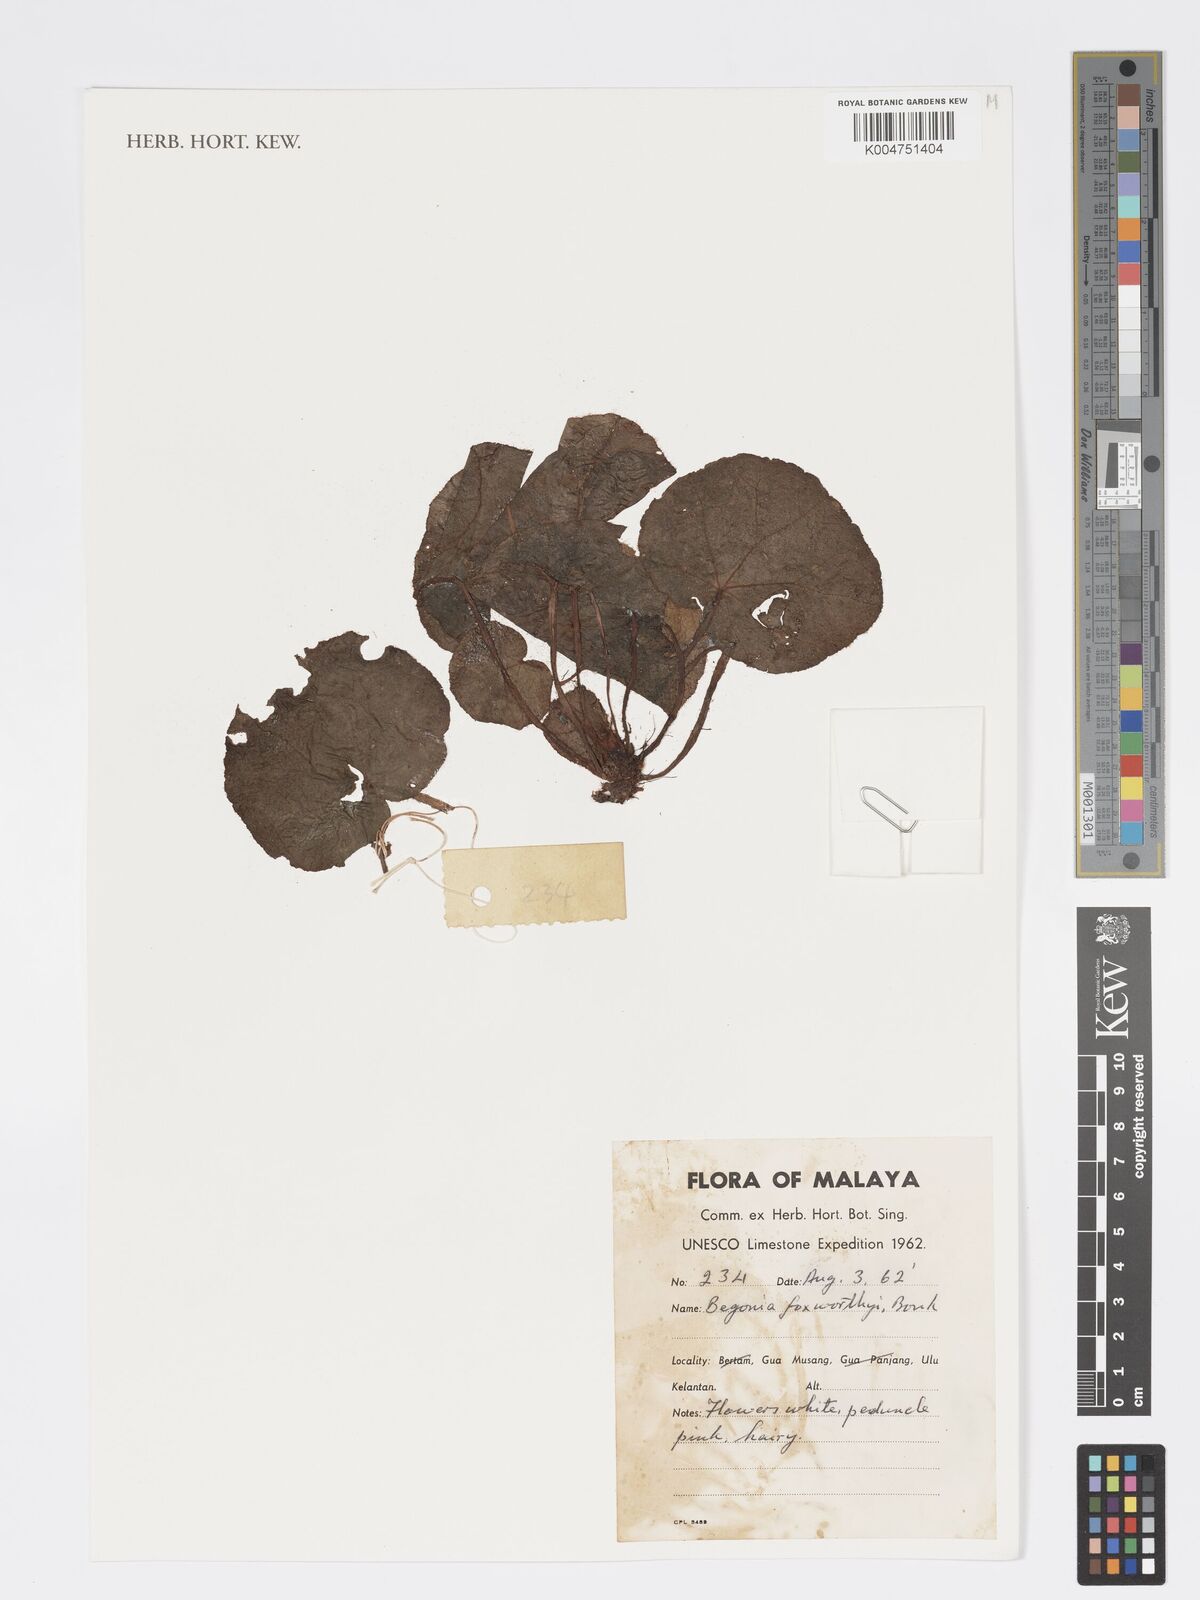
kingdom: Plantae
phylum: Tracheophyta
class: Magnoliopsida
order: Cucurbitales
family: Begoniaceae
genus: Begonia
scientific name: Begonia foxworthyi
